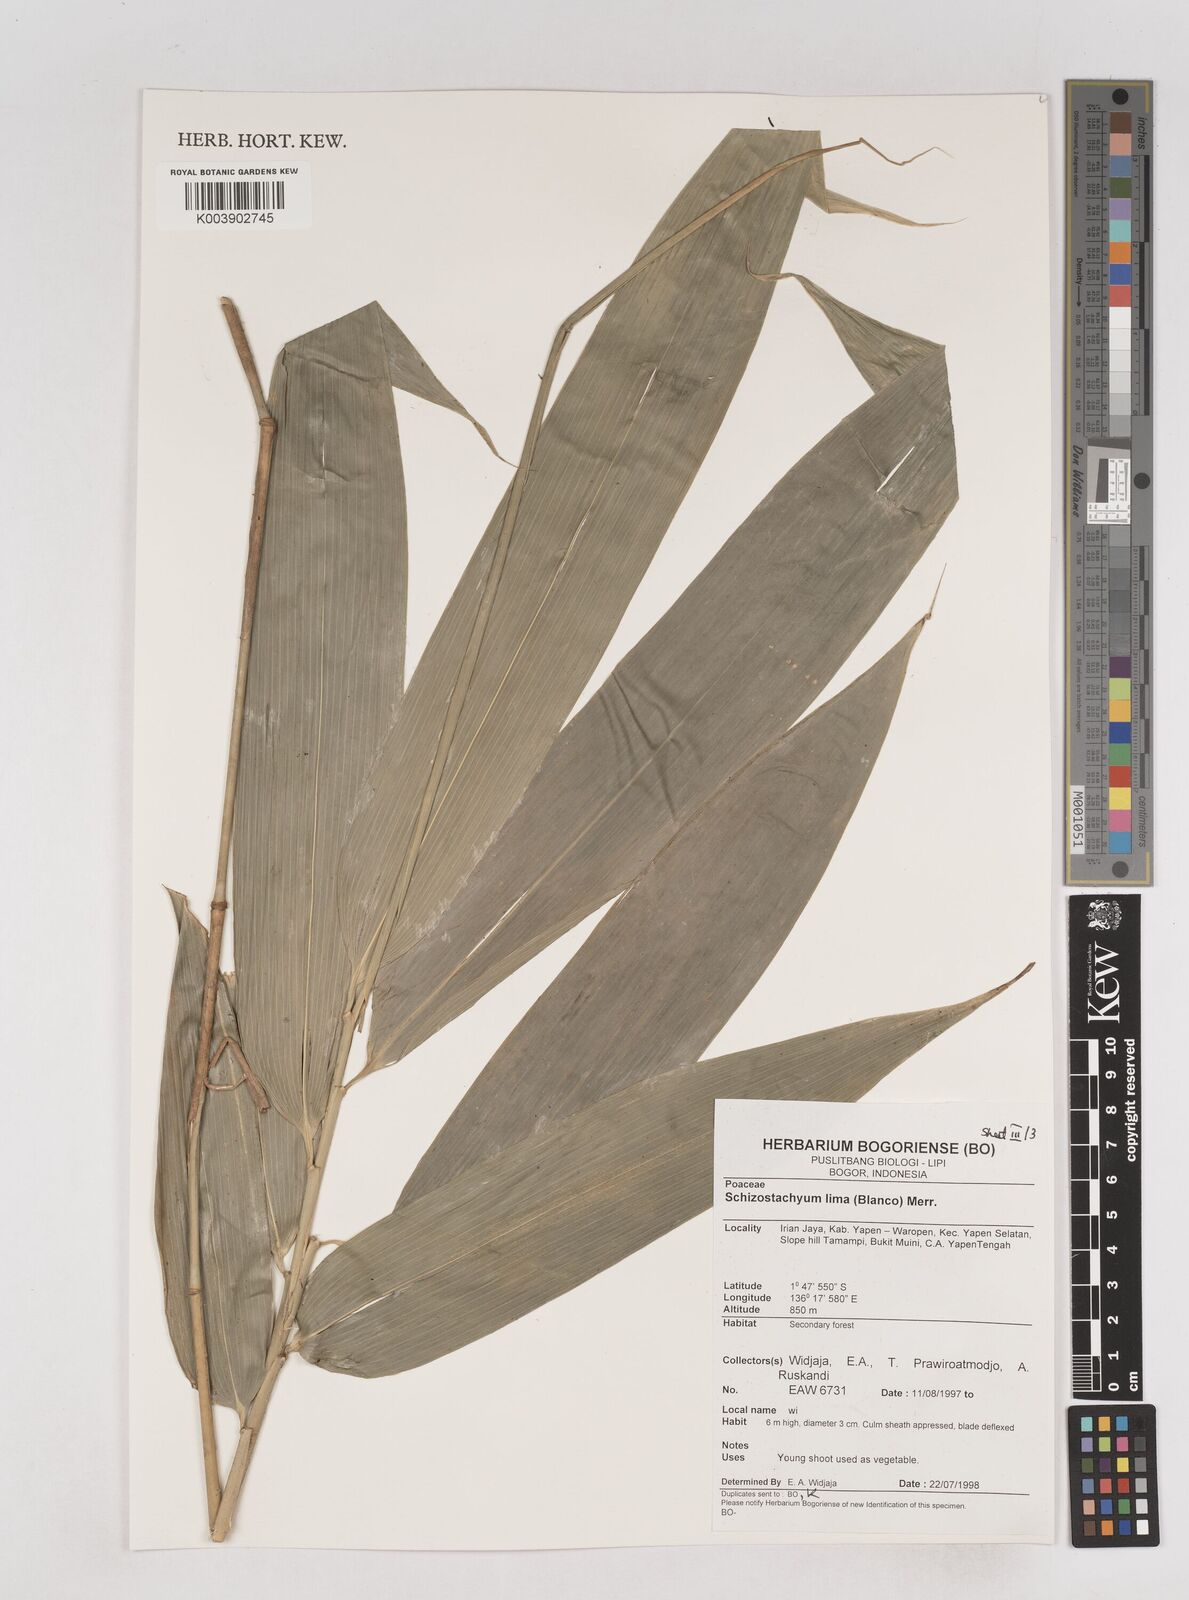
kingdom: Plantae
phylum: Tracheophyta
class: Liliopsida
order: Poales
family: Poaceae
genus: Schizostachyum
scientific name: Schizostachyum lima
